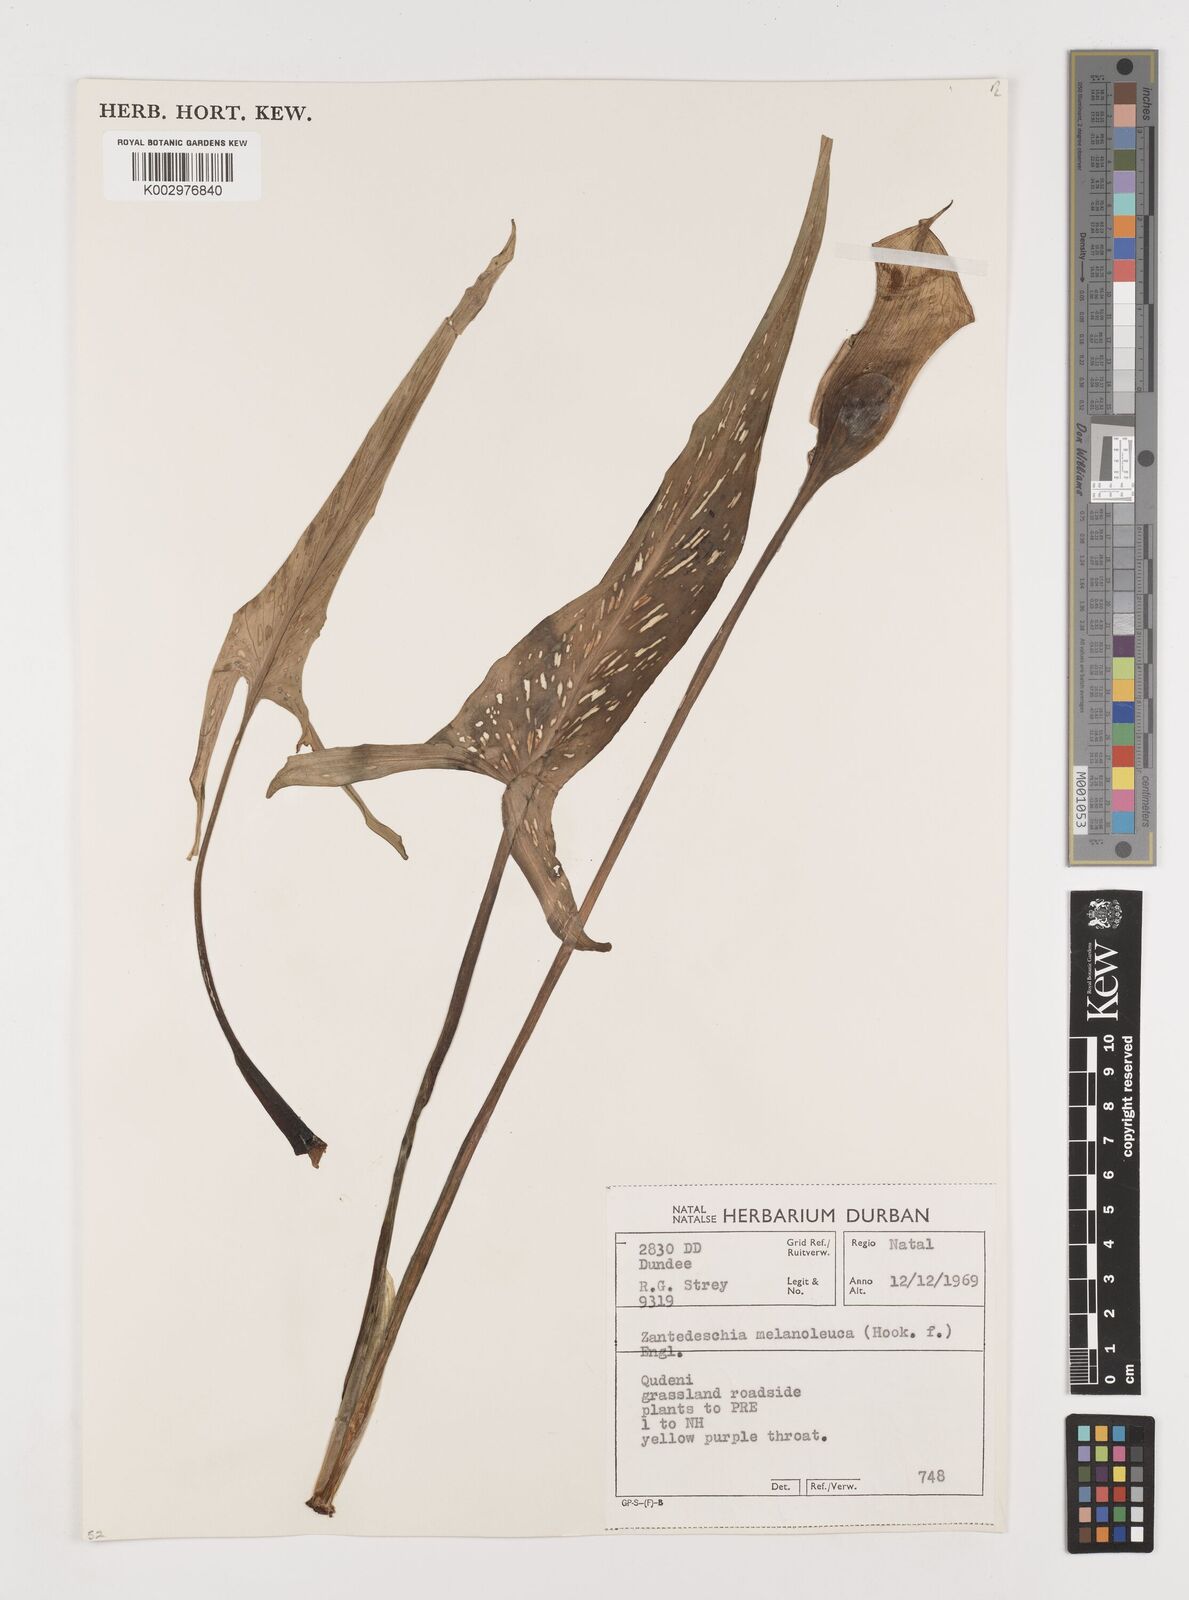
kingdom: Plantae
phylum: Tracheophyta
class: Liliopsida
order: Alismatales
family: Araceae
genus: Zantedeschia
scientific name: Zantedeschia albomaculata
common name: Spotted calla lily
